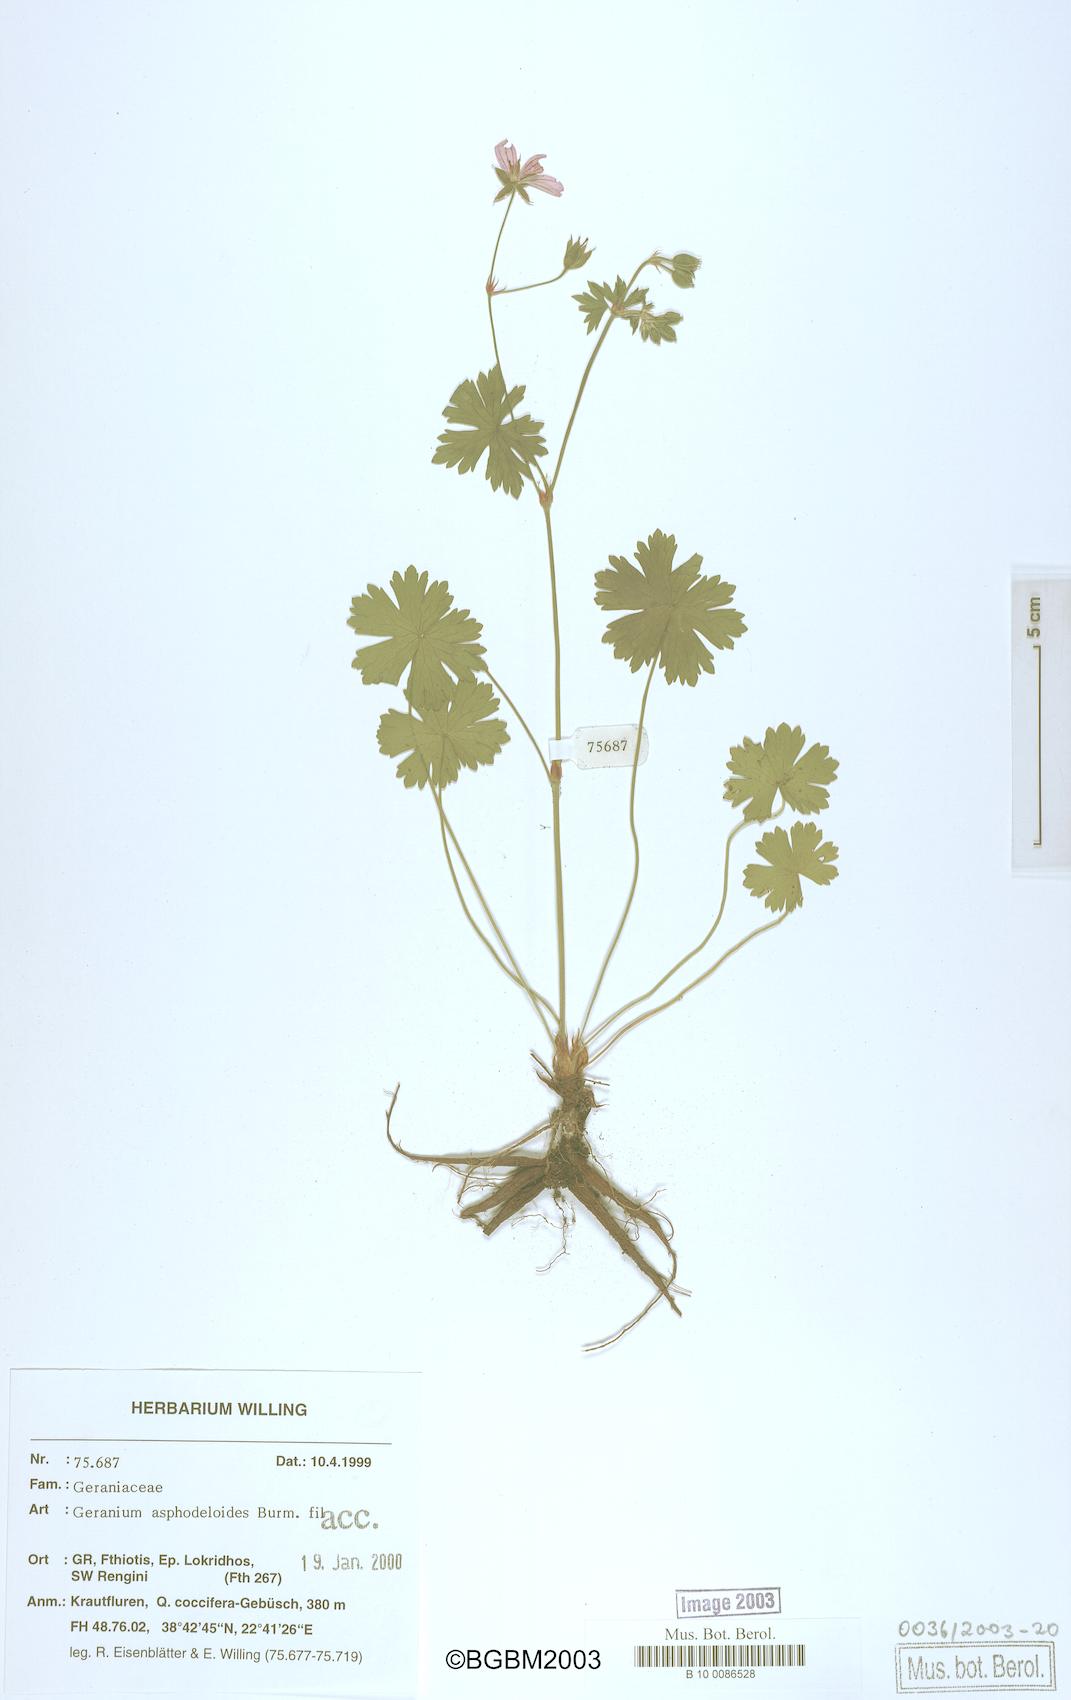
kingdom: Plantae
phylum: Tracheophyta
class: Magnoliopsida
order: Geraniales
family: Geraniaceae
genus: Geranium
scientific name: Geranium asphodeloides
